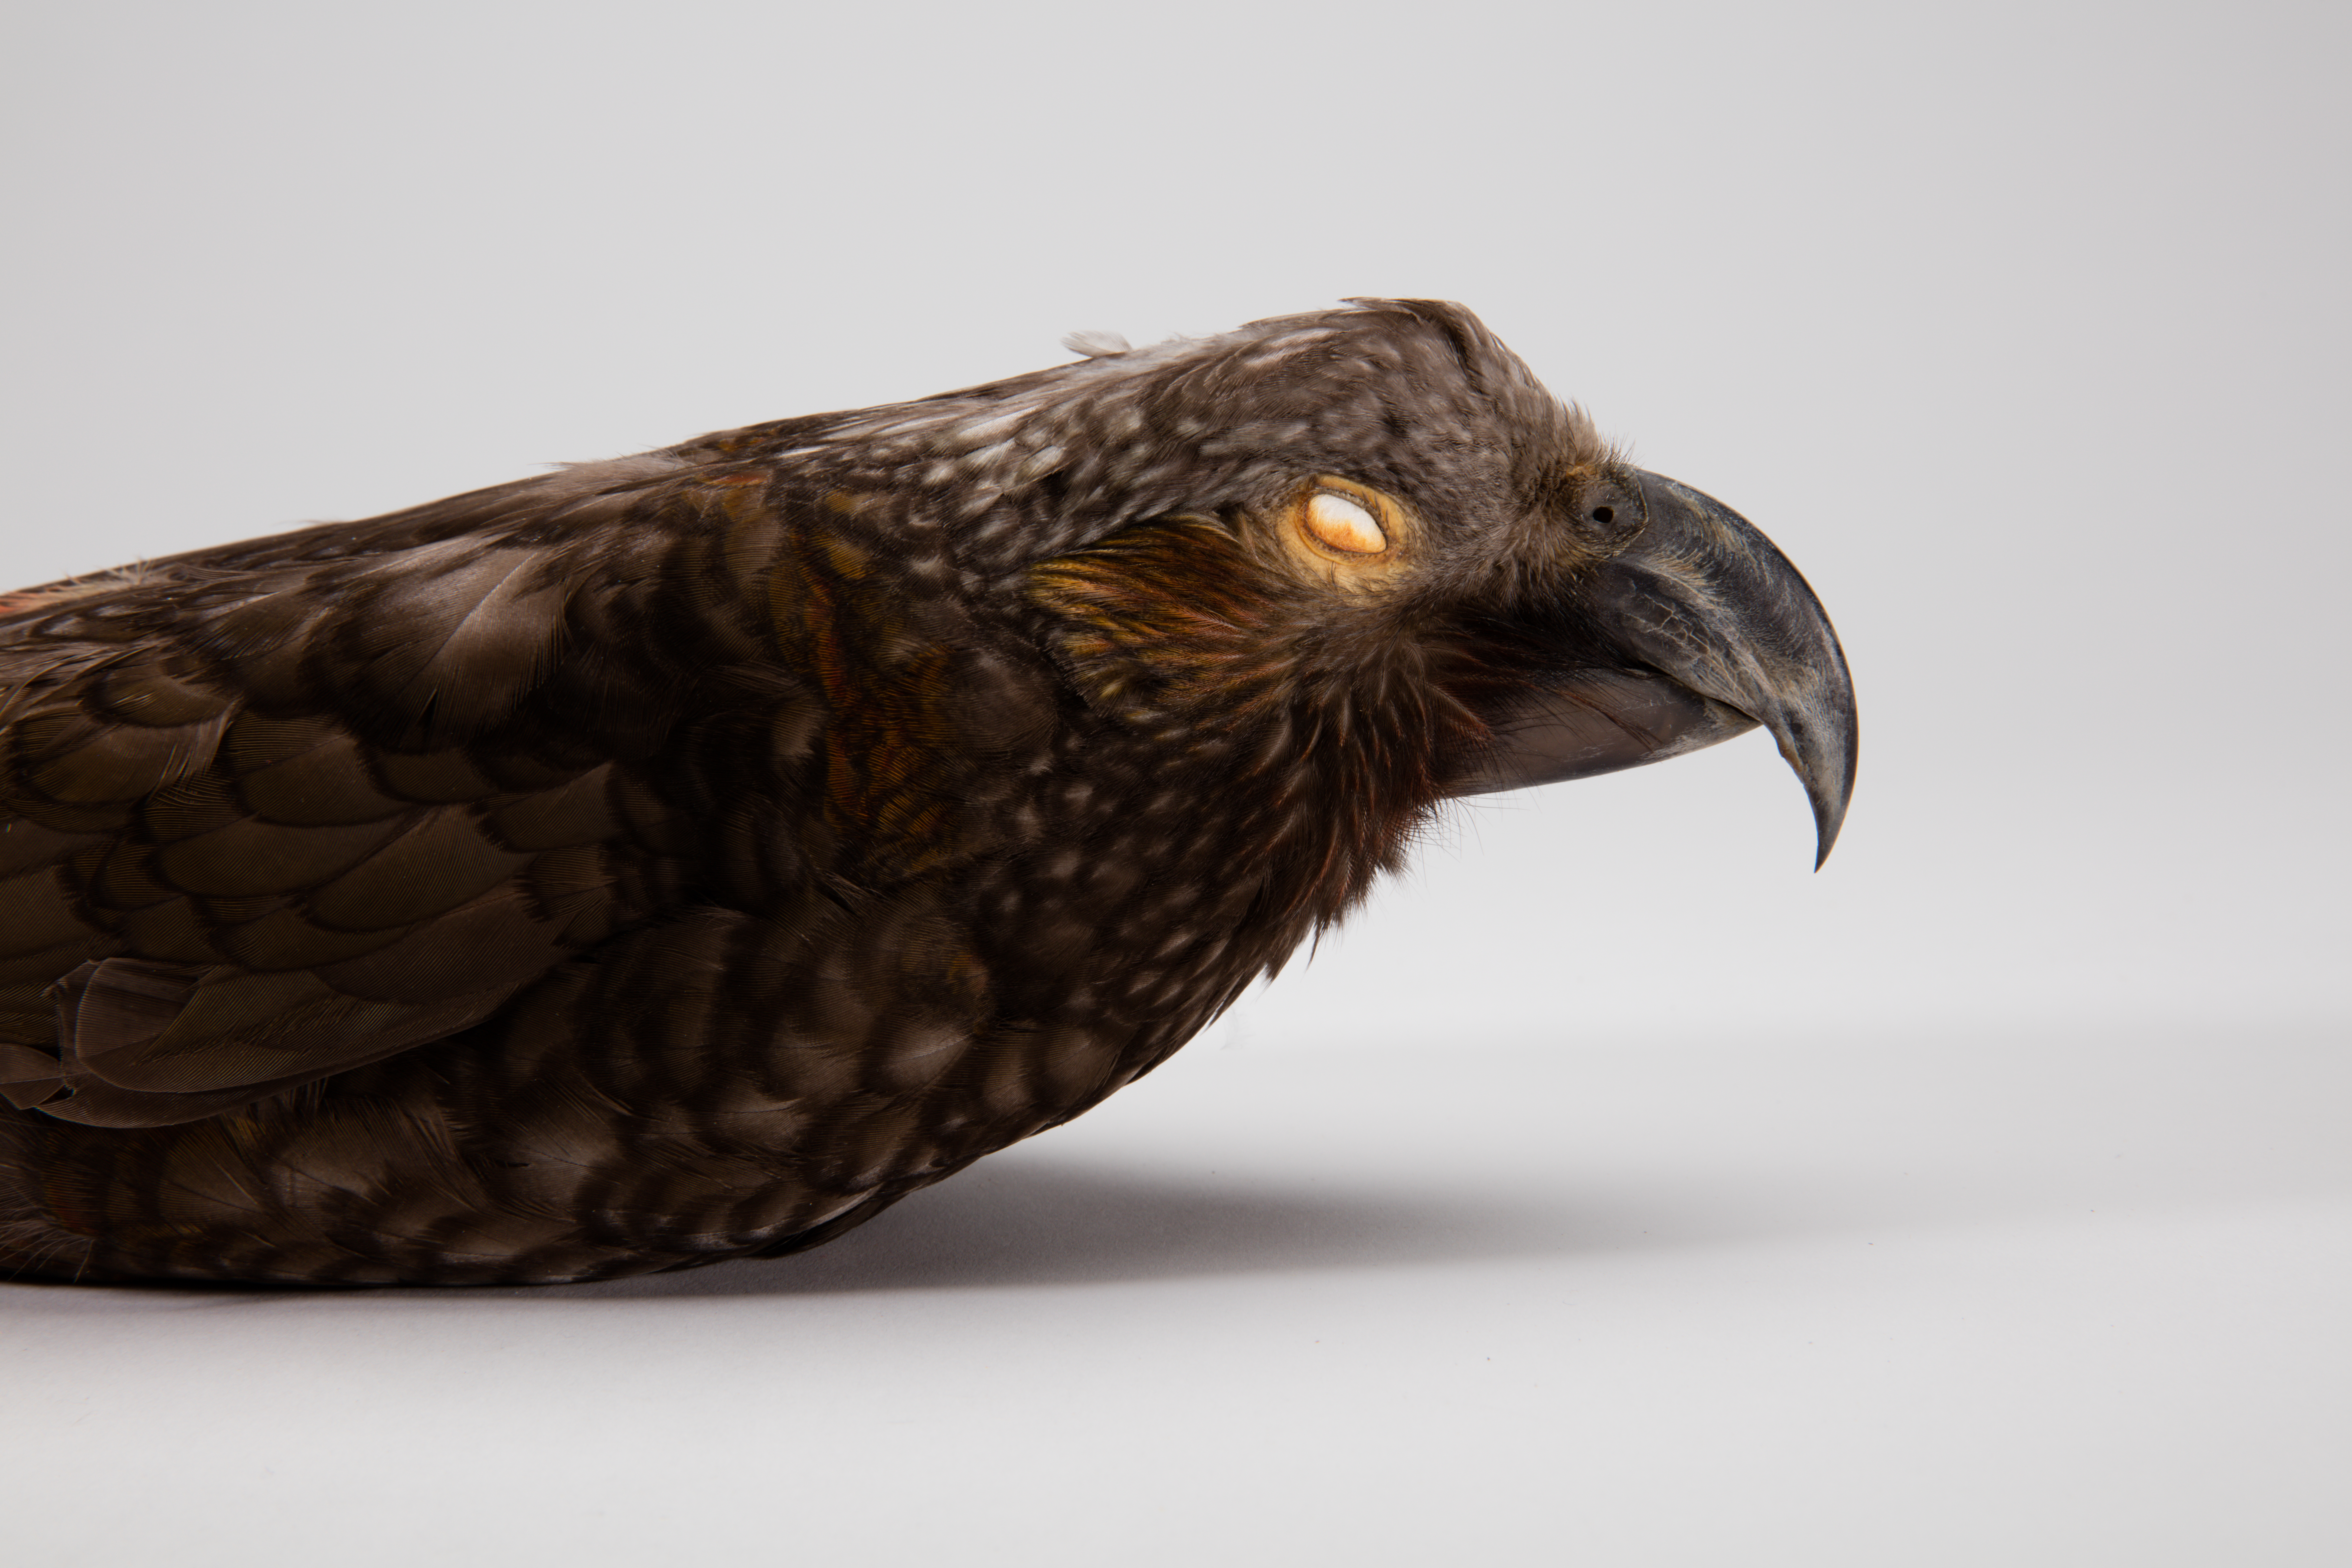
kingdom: Animalia
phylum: Chordata
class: Aves
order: Psittaciformes
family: Psittacidae
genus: Nestor
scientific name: Nestor meridionalis
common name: New zealand kaka
